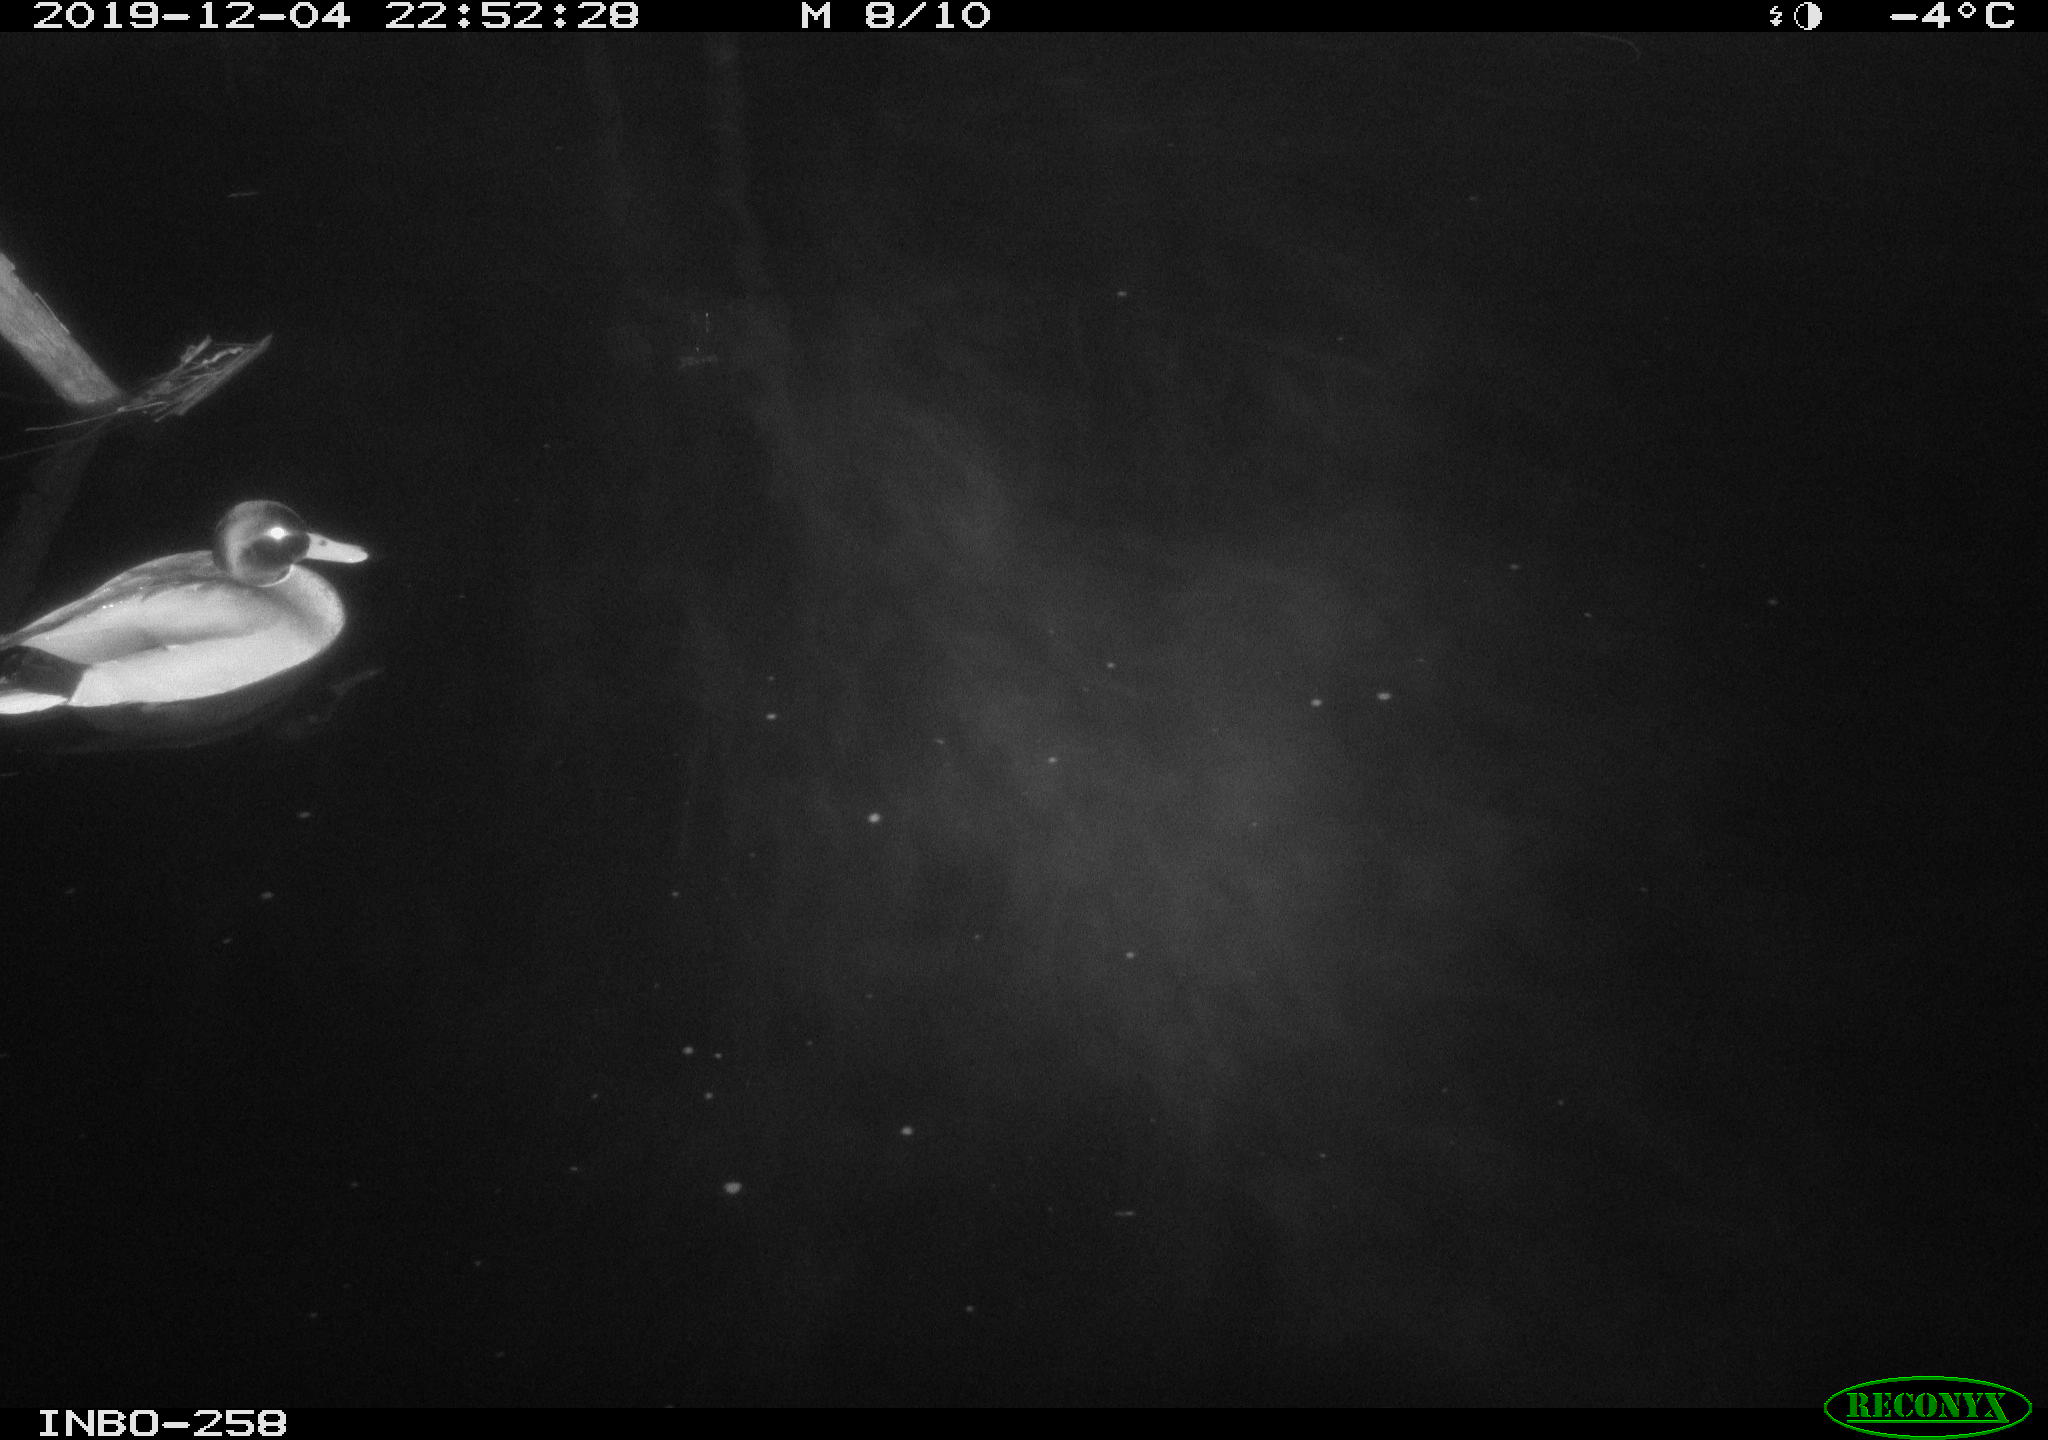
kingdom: Animalia
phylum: Chordata
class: Aves
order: Anseriformes
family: Anatidae
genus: Anas
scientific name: Anas platyrhynchos
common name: Mallard
